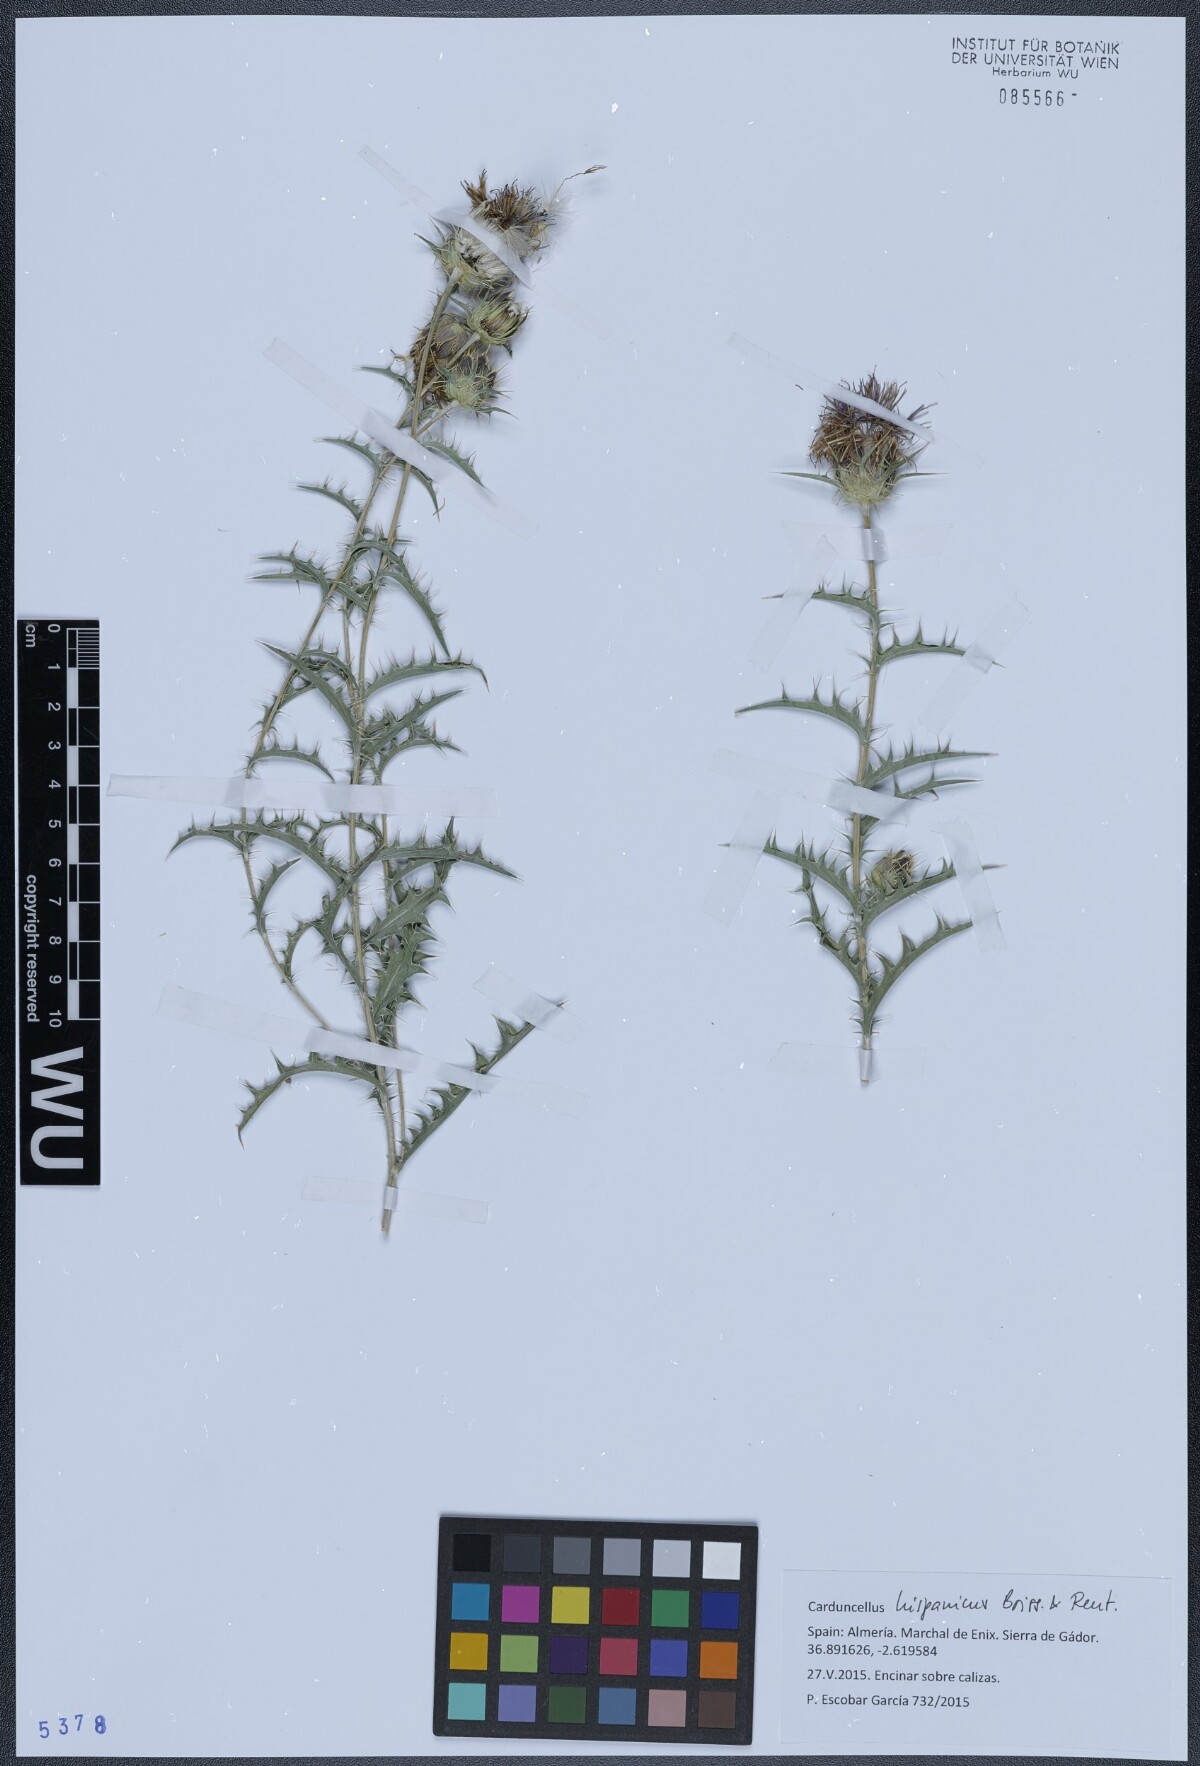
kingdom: Plantae
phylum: Tracheophyta
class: Magnoliopsida
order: Asterales
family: Asteraceae
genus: Carduncellus
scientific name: Carduncellus hispanicus
